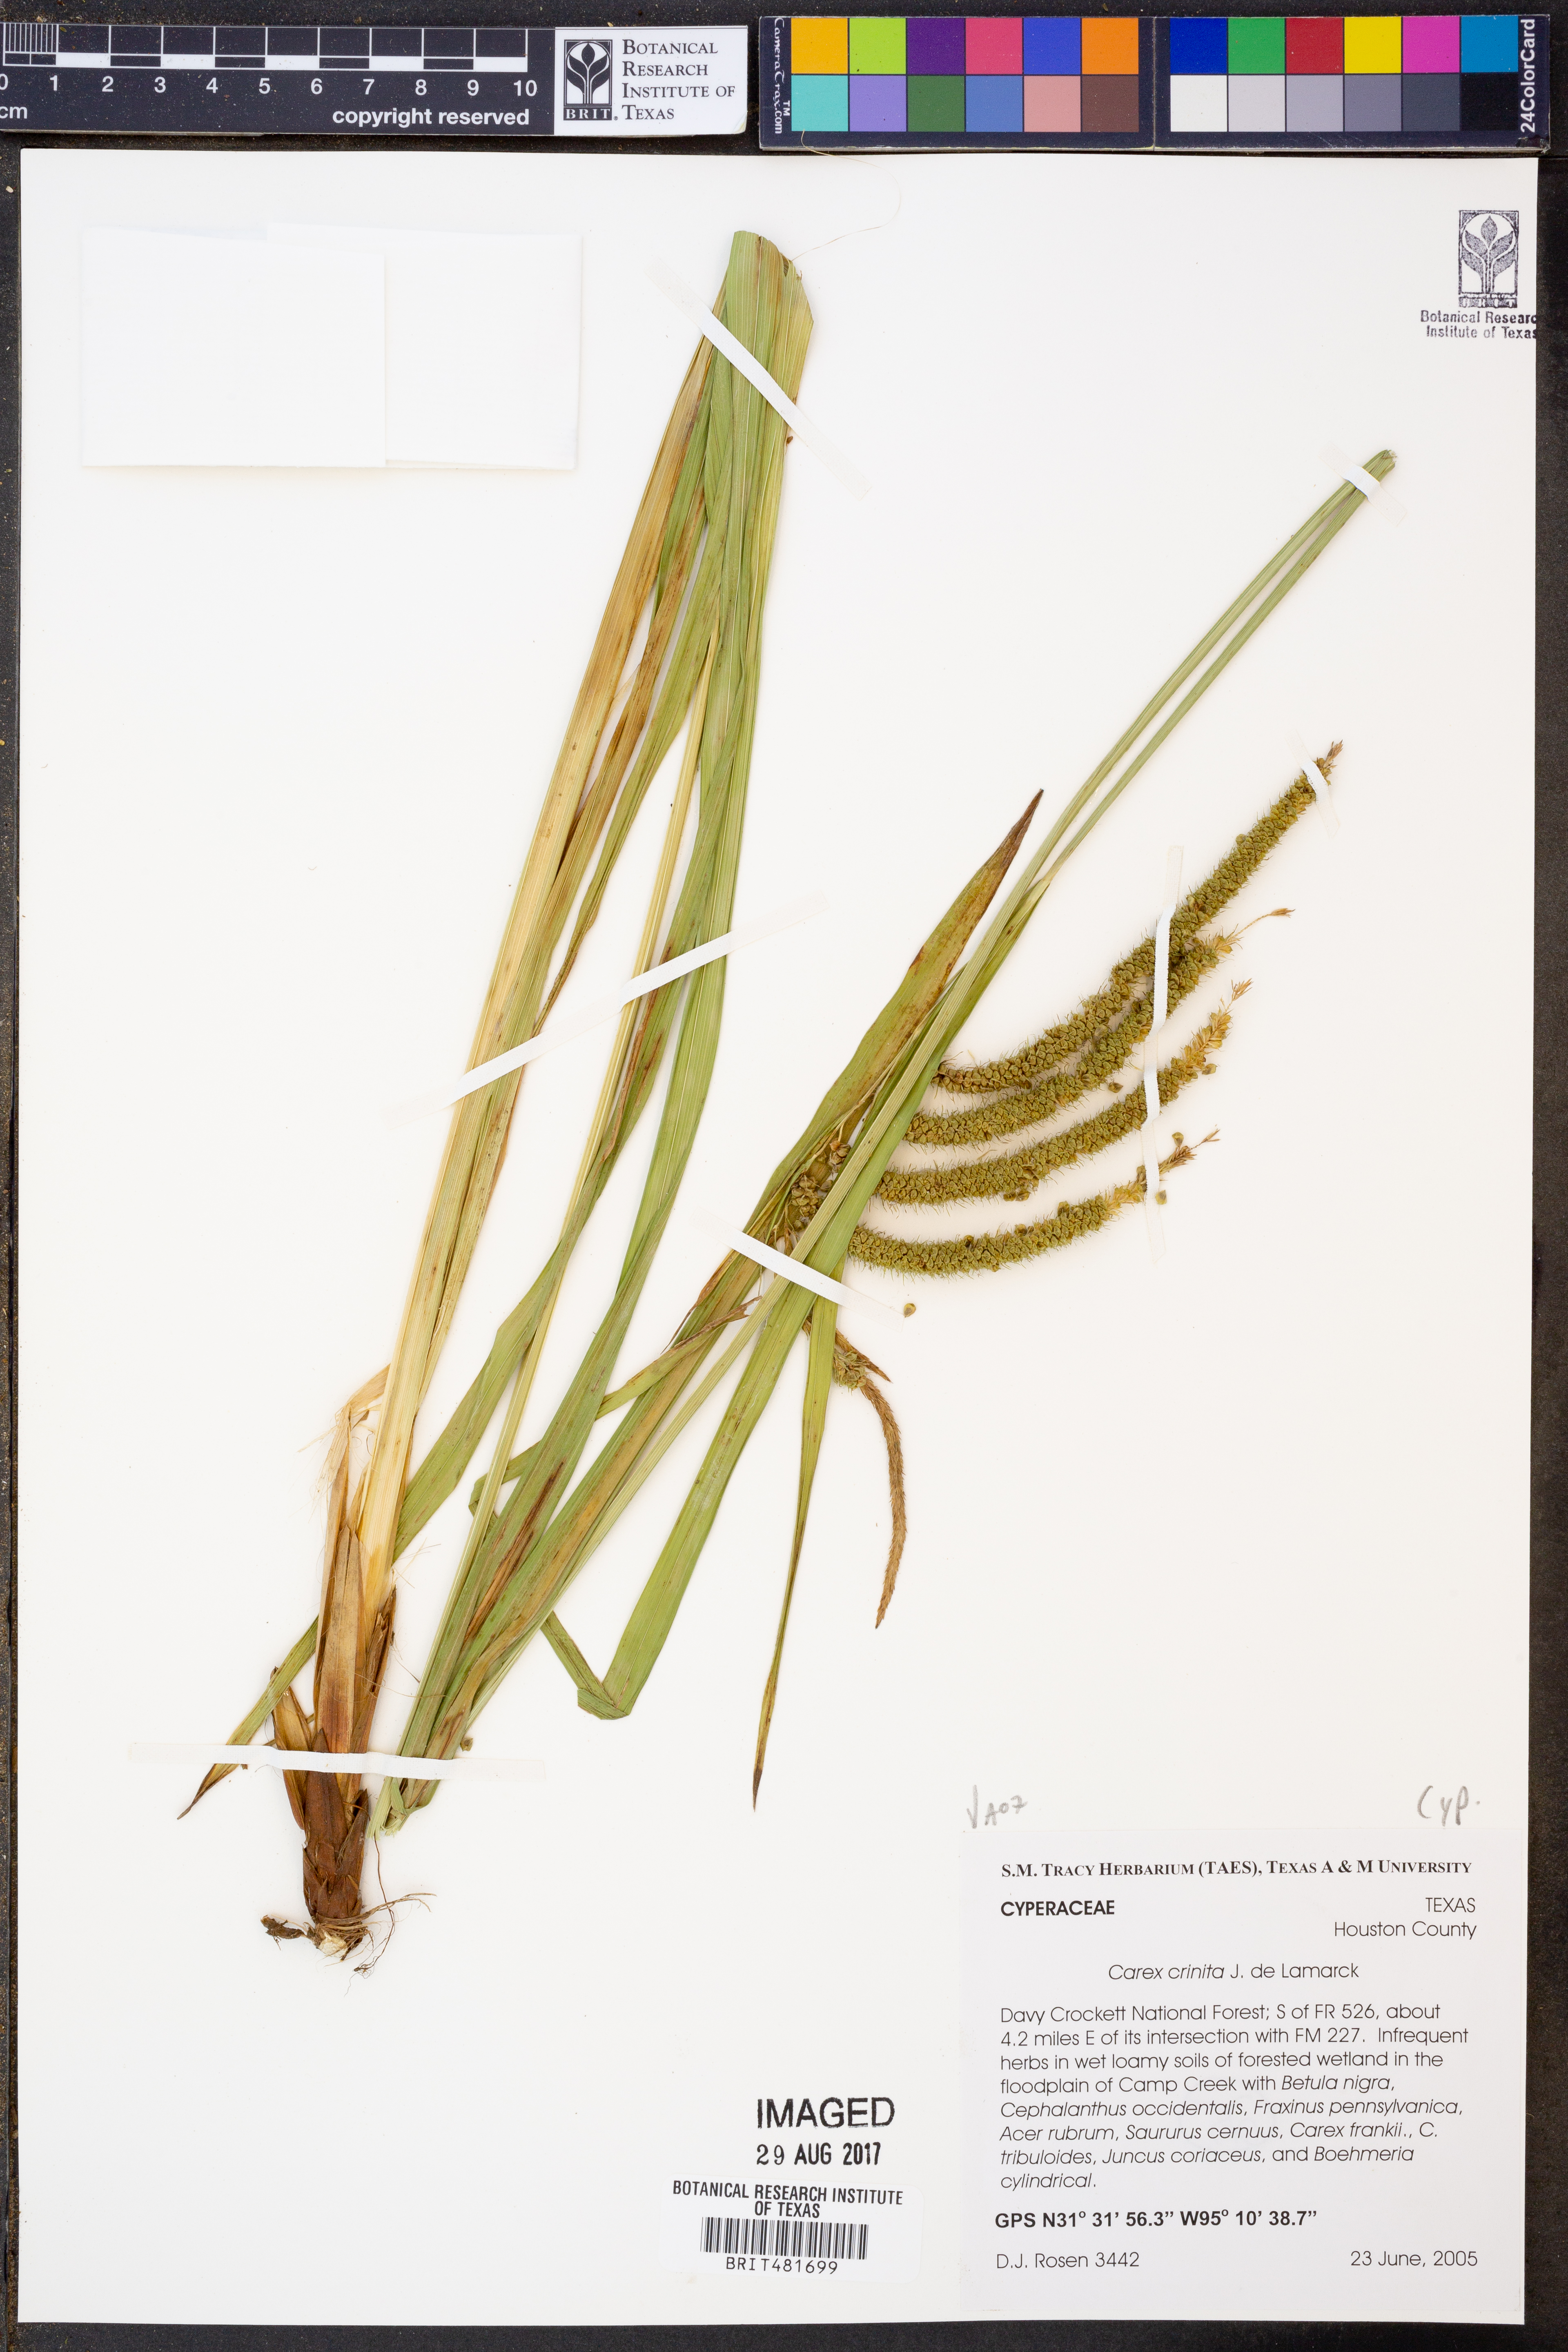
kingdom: Plantae
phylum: Tracheophyta
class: Liliopsida
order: Poales
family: Cyperaceae
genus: Carex
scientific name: Carex crinita
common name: Fringed sedge
